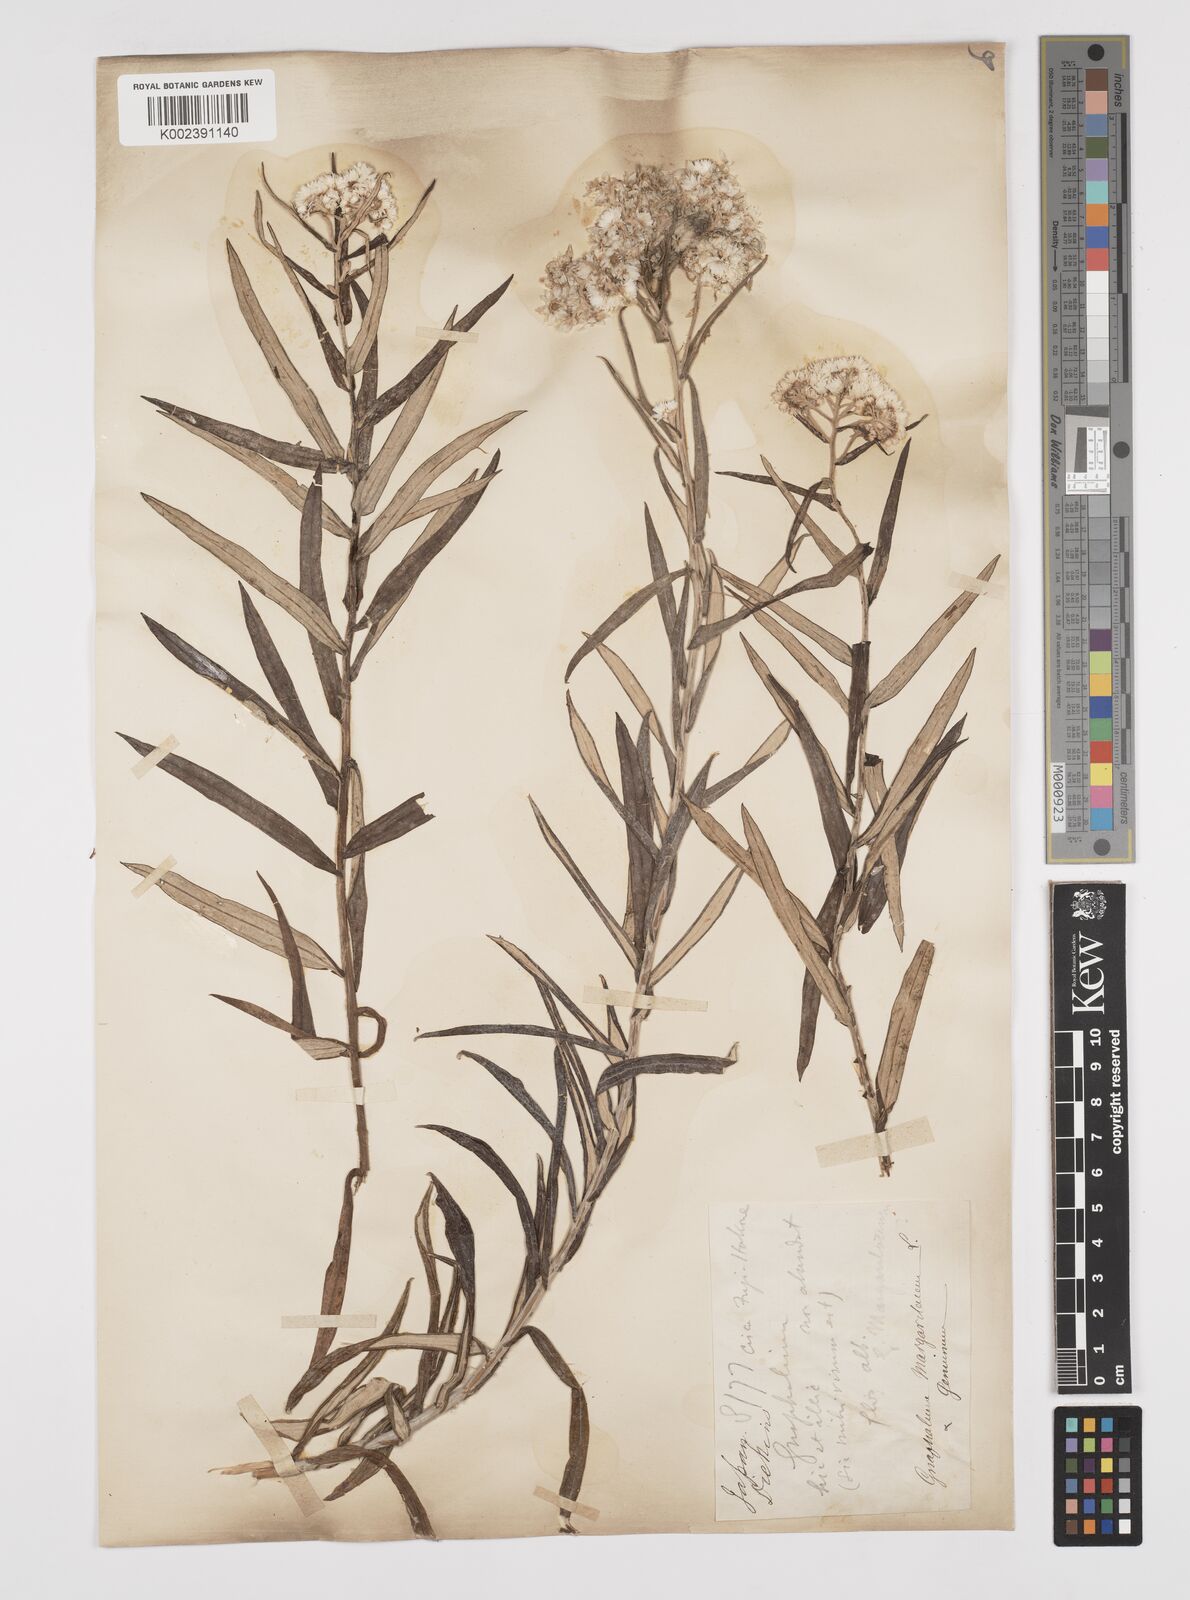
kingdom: Plantae
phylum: Tracheophyta
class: Magnoliopsida
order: Asterales
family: Asteraceae
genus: Anaphalis
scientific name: Anaphalis margaritacea
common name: Pearly everlasting
